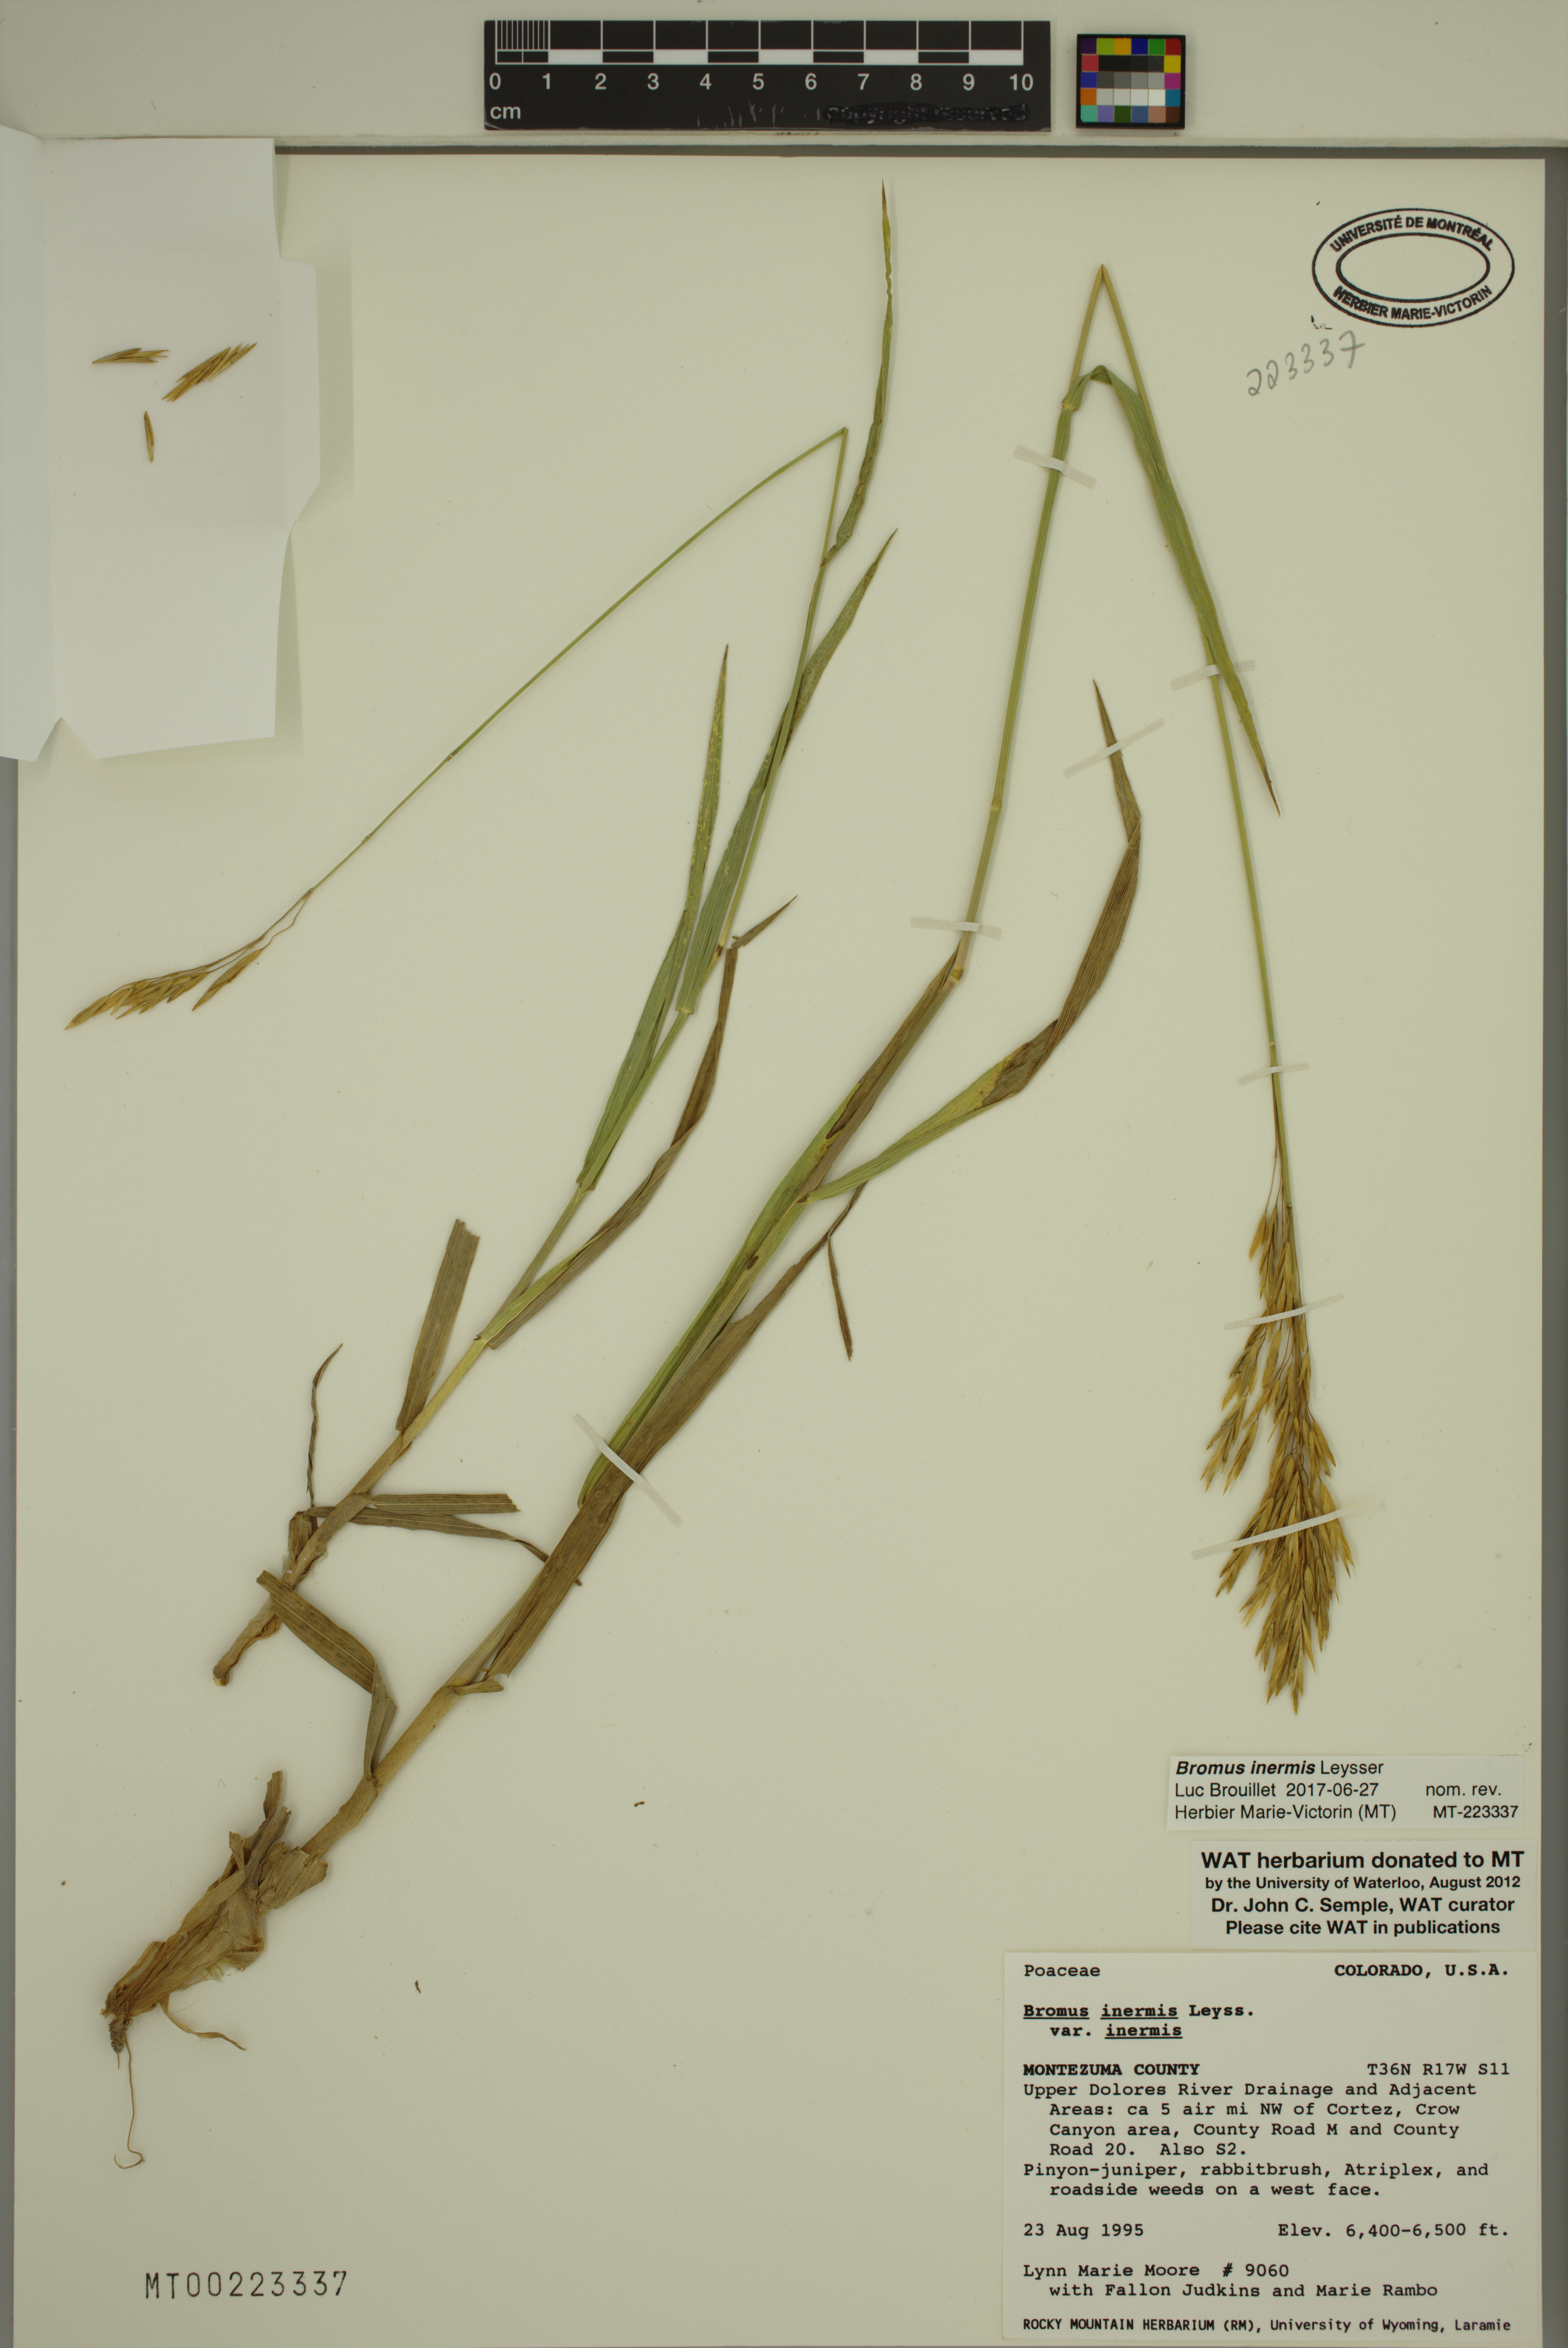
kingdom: Plantae
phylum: Tracheophyta
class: Liliopsida
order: Poales
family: Poaceae
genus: Bromus
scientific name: Bromus inermis
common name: Smooth brome
